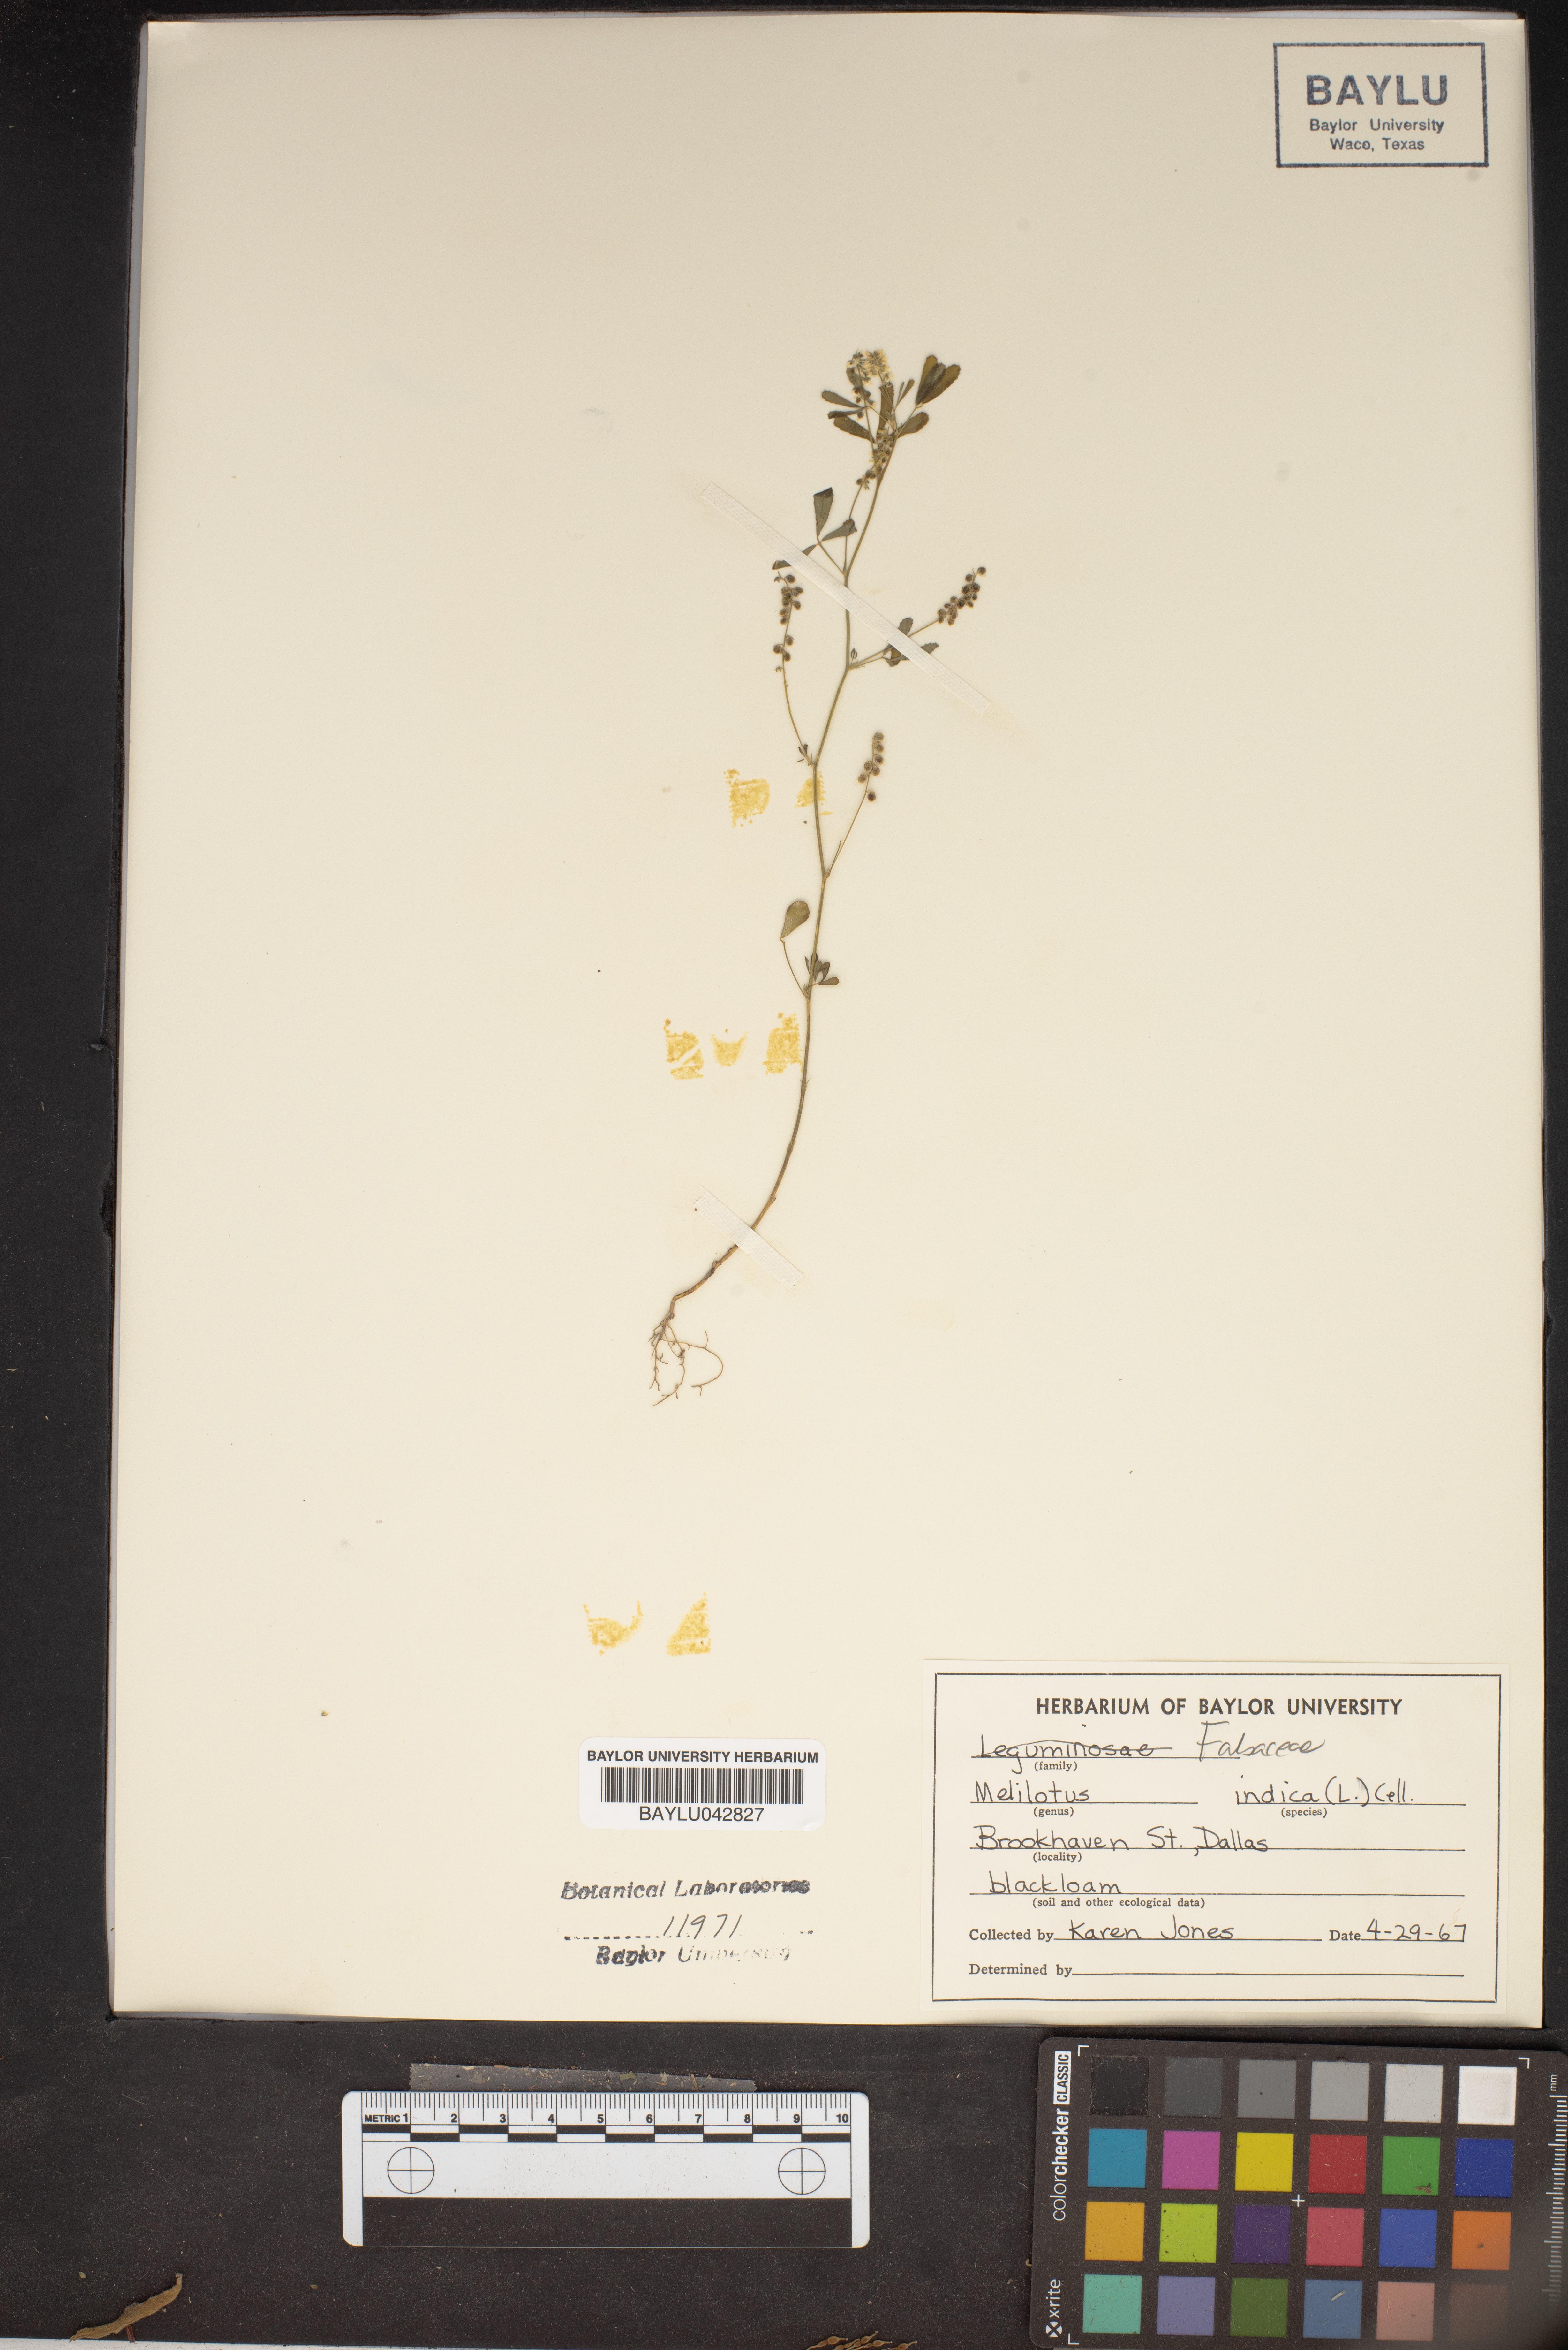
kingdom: Plantae
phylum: Tracheophyta
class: Magnoliopsida
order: Fabales
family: Fabaceae
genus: Melilotus
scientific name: Melilotus indicus
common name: Small melilot
